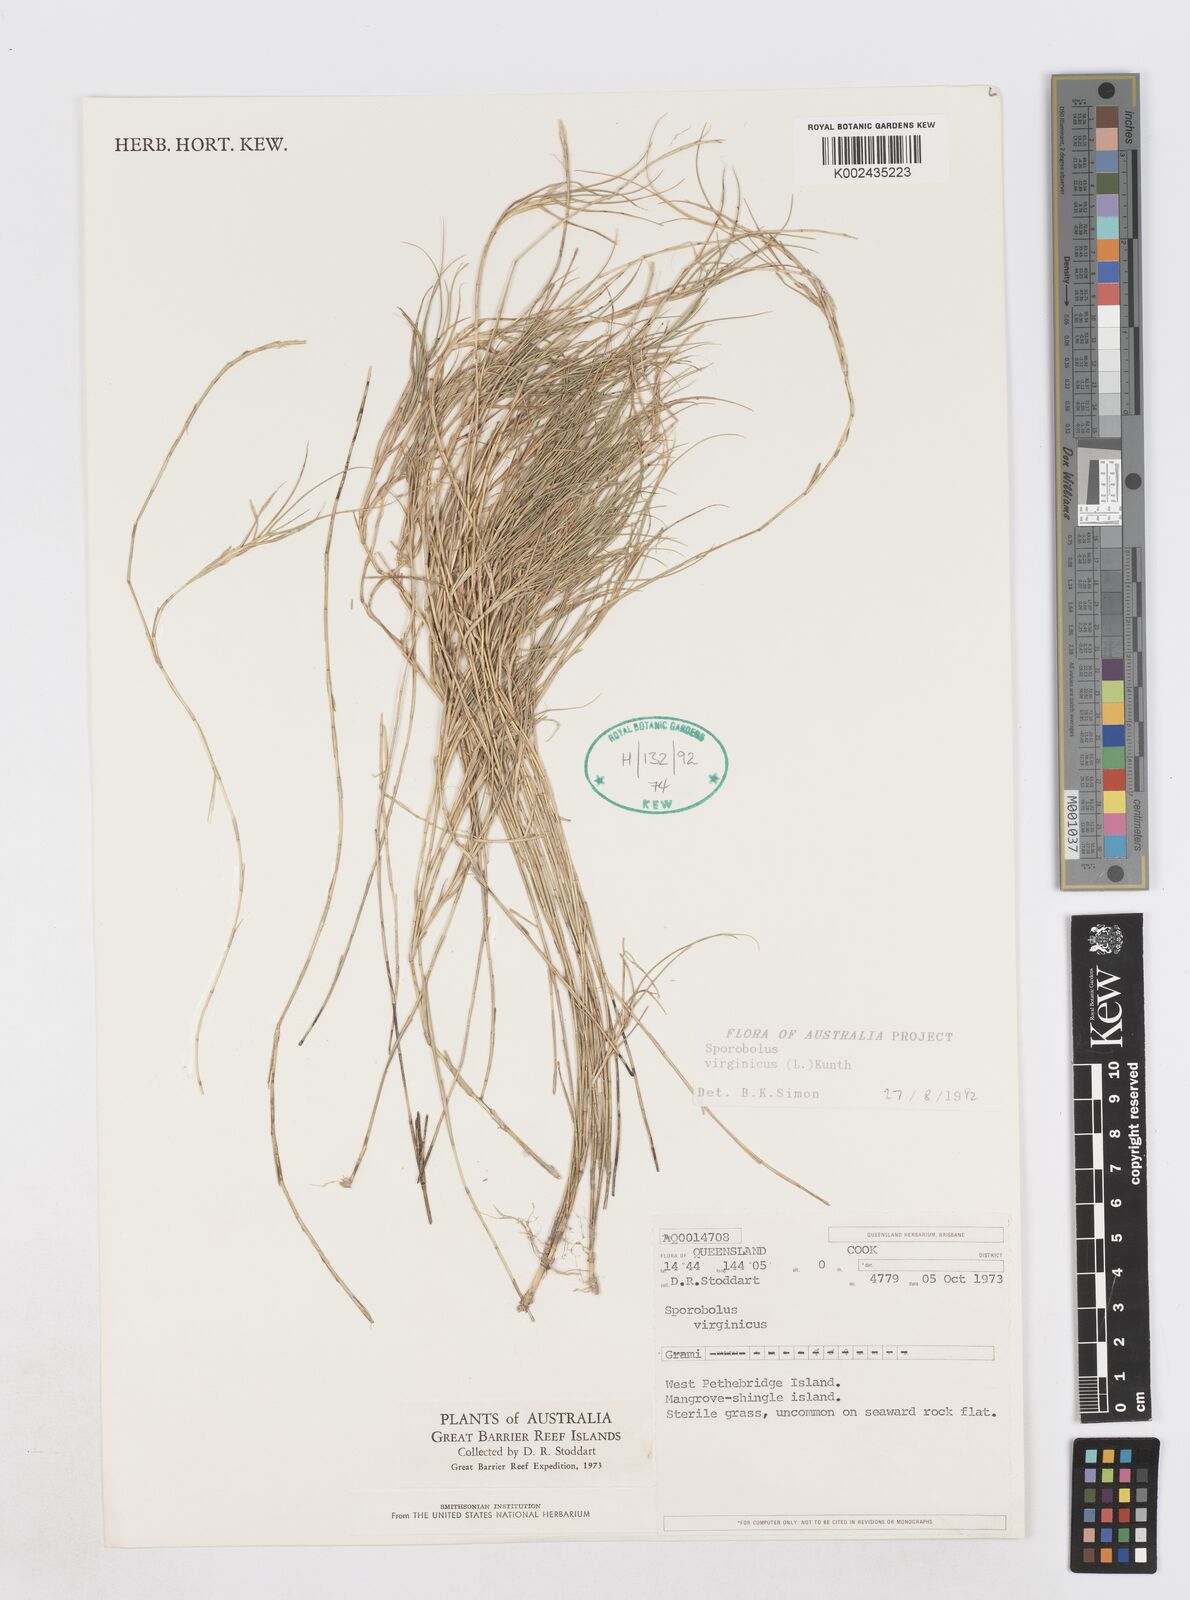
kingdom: Plantae
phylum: Tracheophyta
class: Liliopsida
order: Poales
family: Poaceae
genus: Sporobolus
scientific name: Sporobolus virginicus
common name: Beach dropseed
